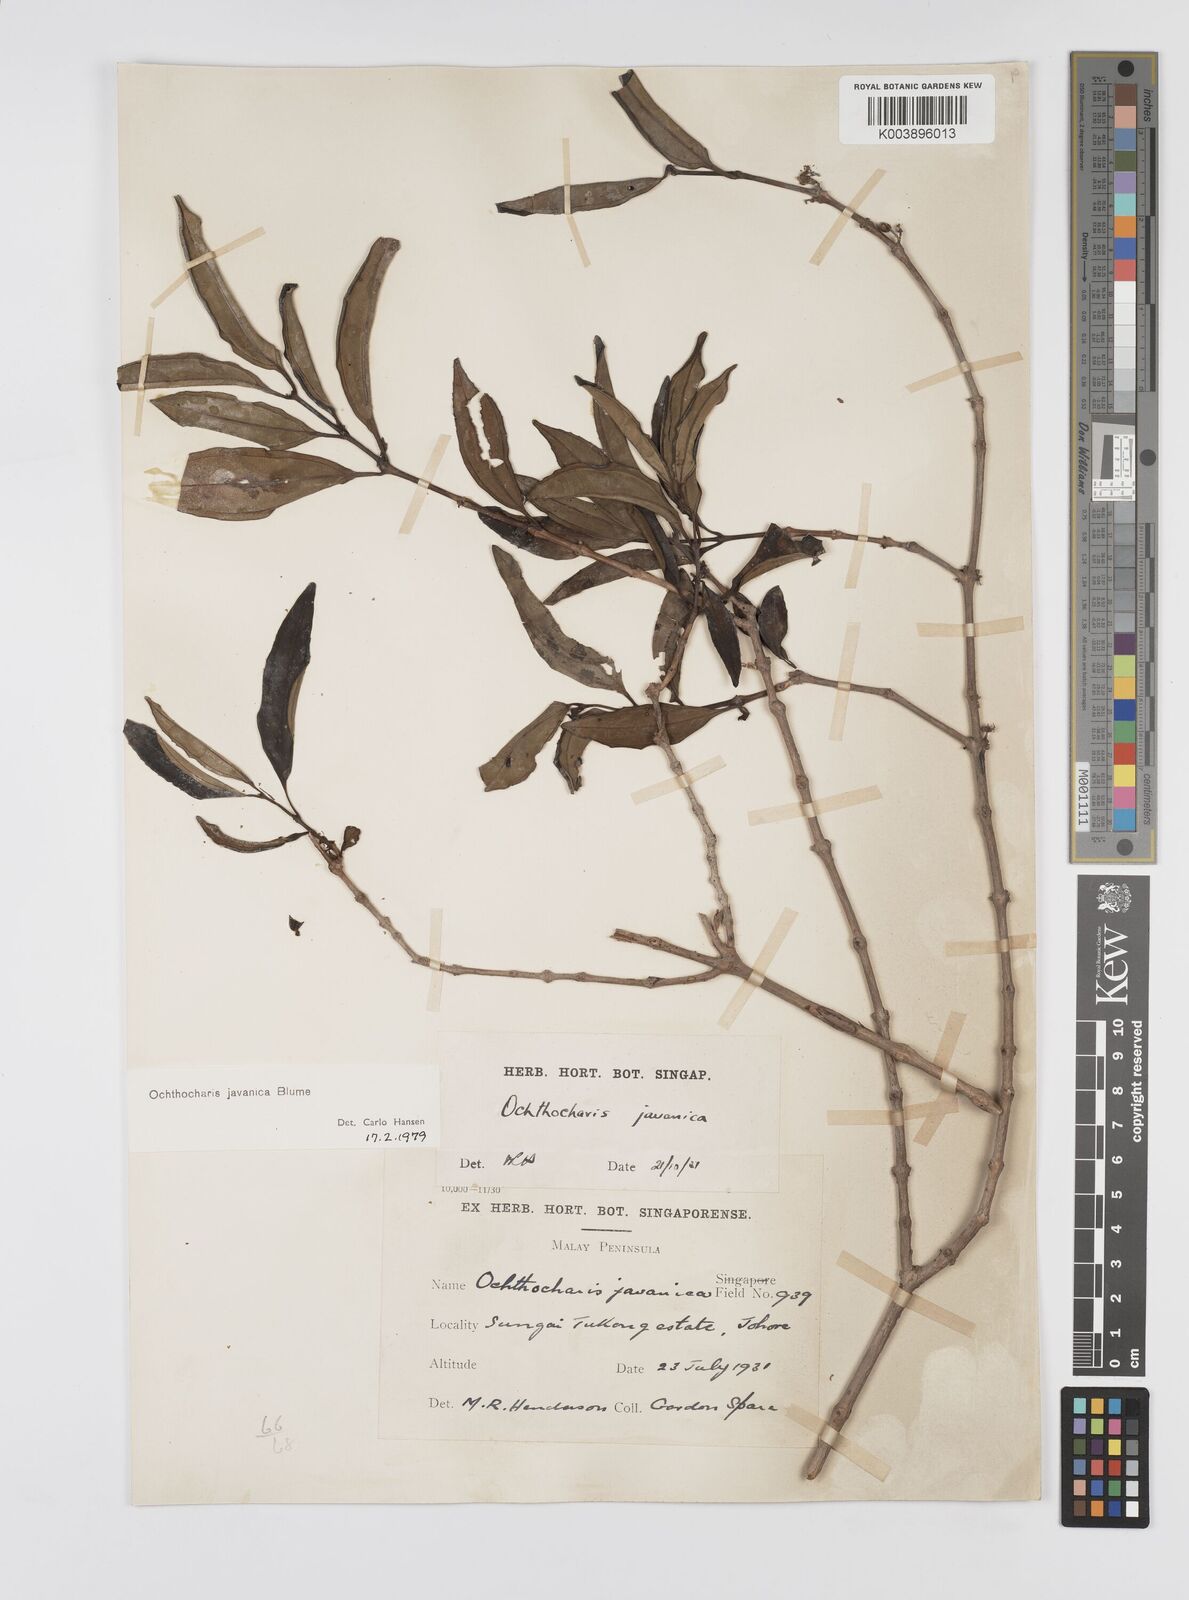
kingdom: Plantae
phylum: Tracheophyta
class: Magnoliopsida
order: Myrtales
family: Melastomataceae
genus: Ochthocharis
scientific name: Ochthocharis javanica
